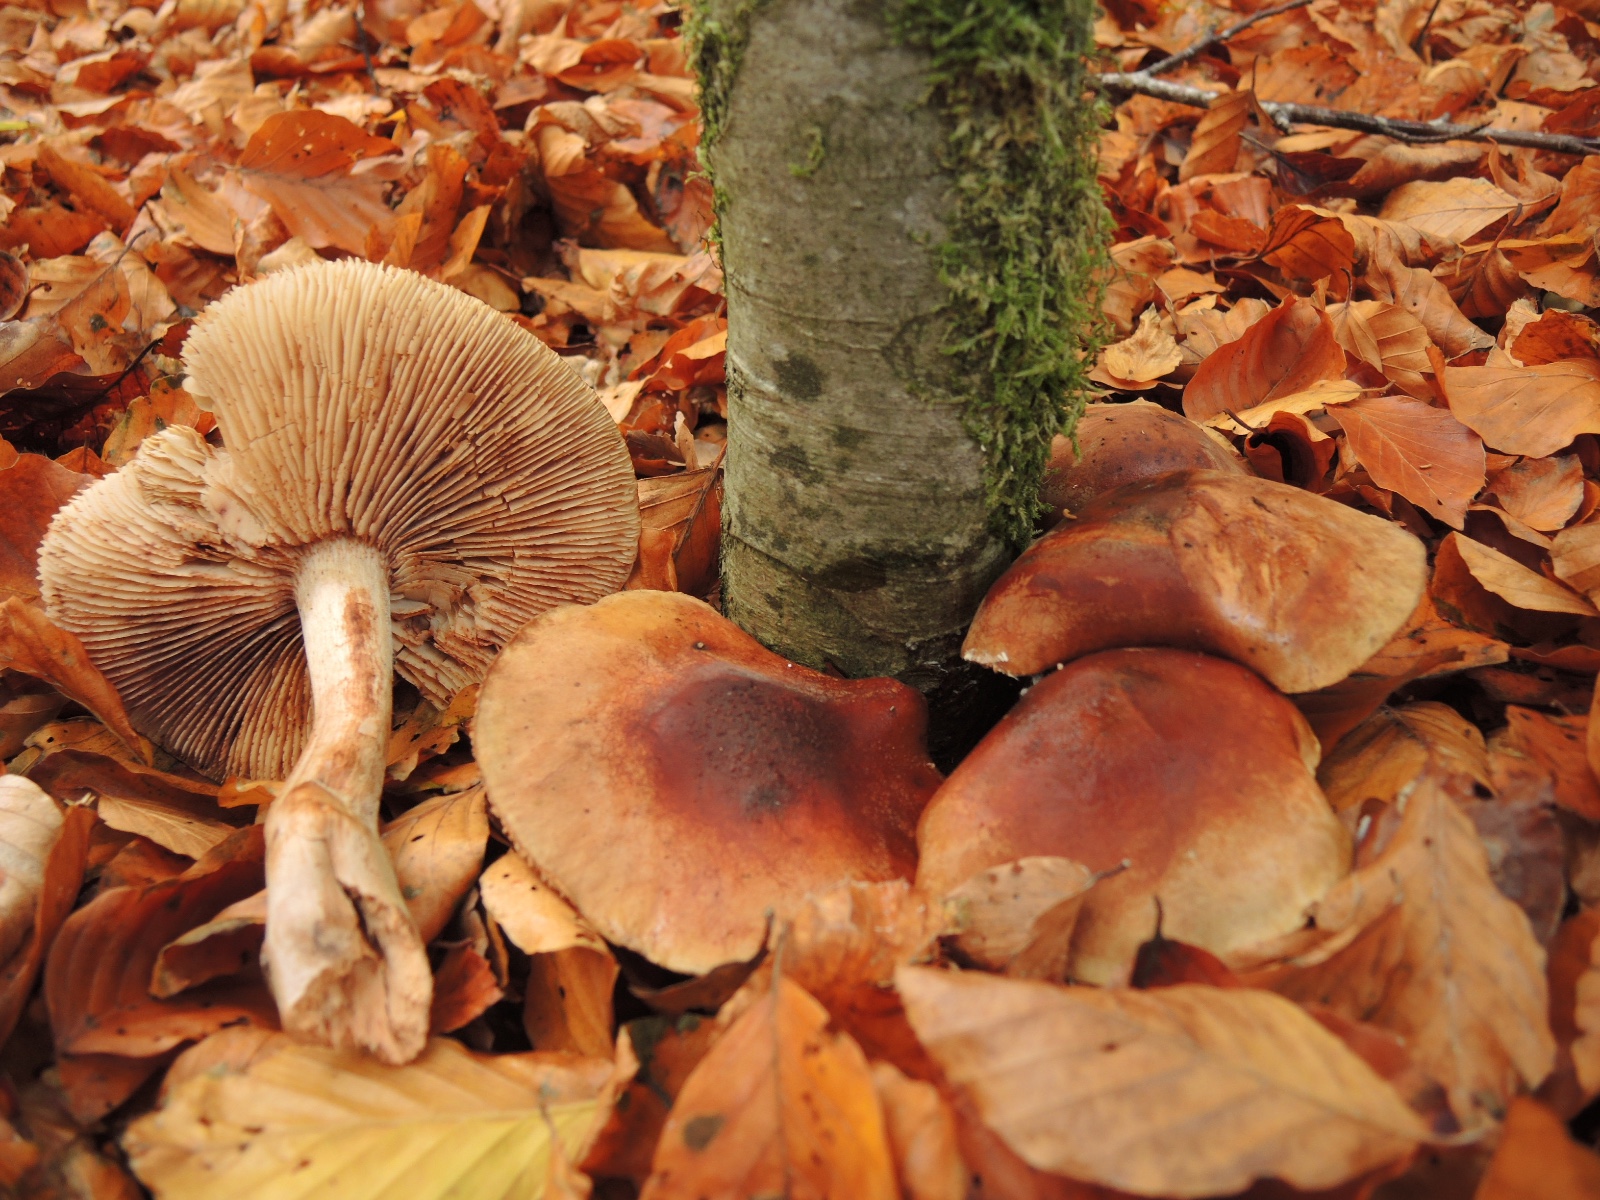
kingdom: Fungi
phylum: Basidiomycota
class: Agaricomycetes
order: Agaricales
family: Tricholomataceae
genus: Tricholoma
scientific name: Tricholoma ustale
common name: sveden ridderhat
